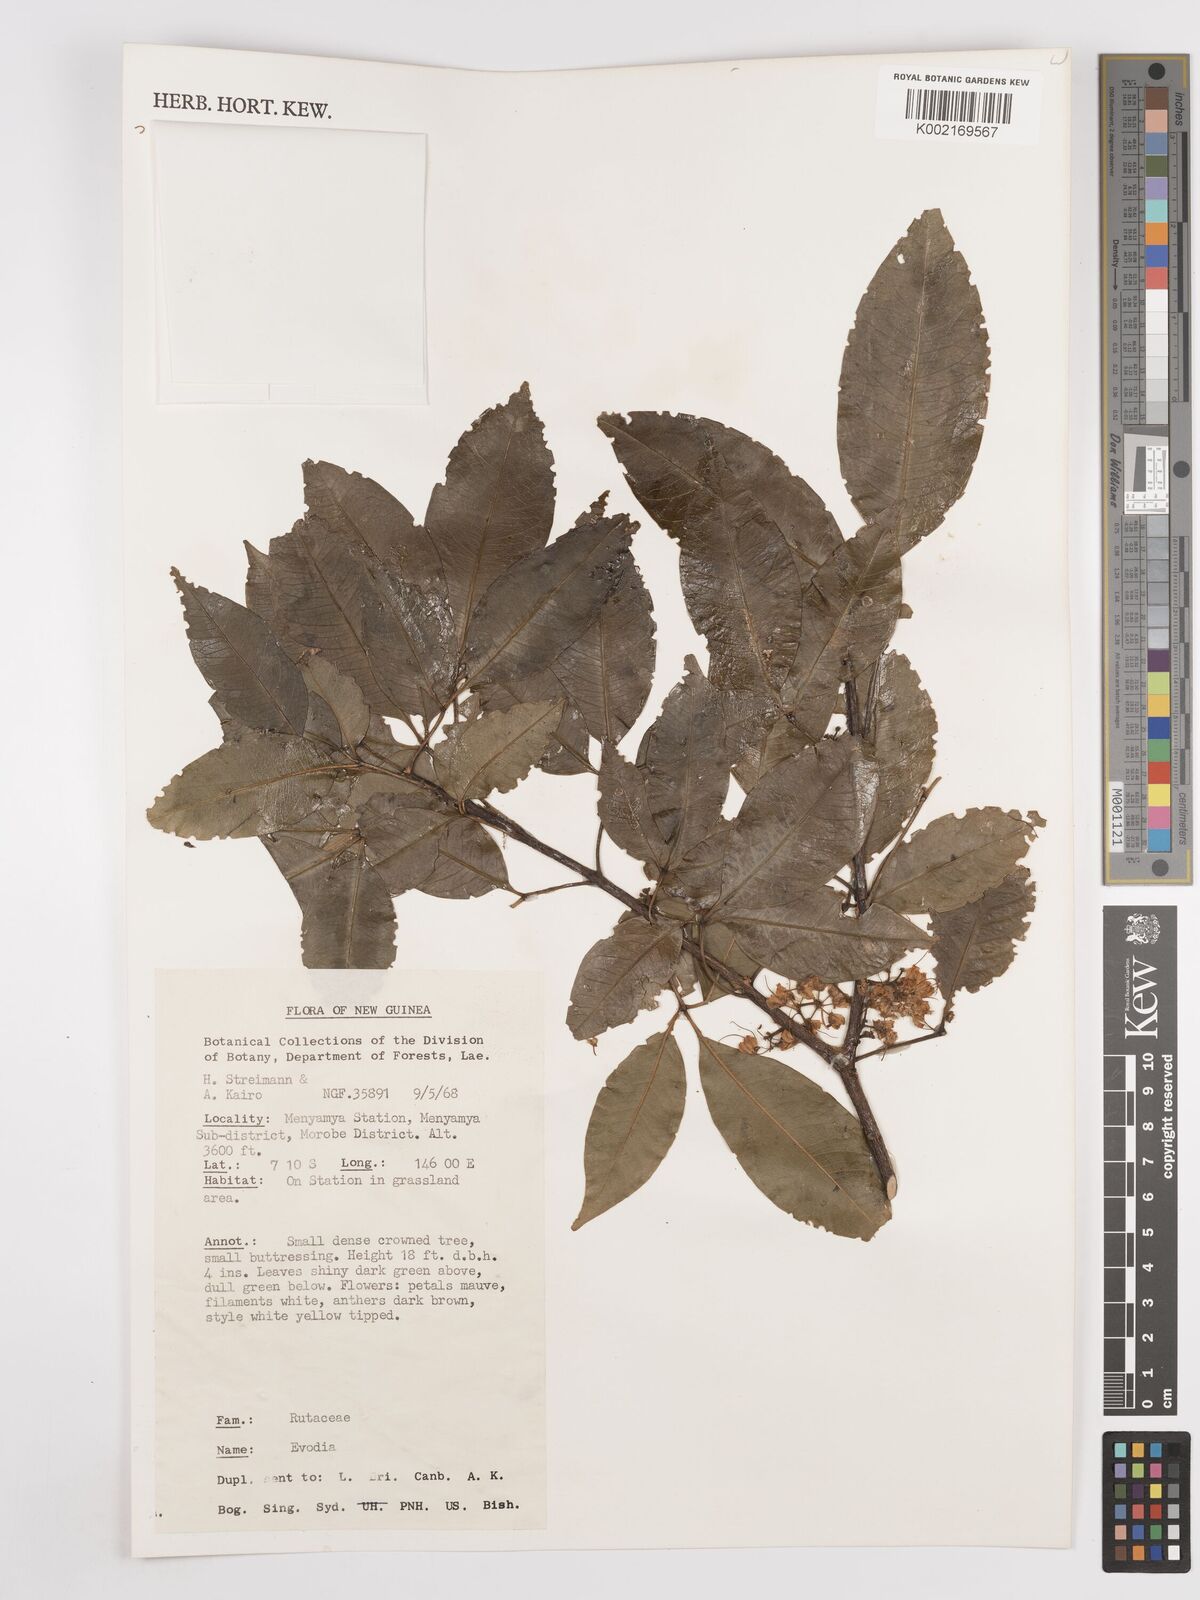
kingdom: Plantae
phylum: Tracheophyta
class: Magnoliopsida
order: Sapindales
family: Rutaceae
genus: Euodia
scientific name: Euodia
